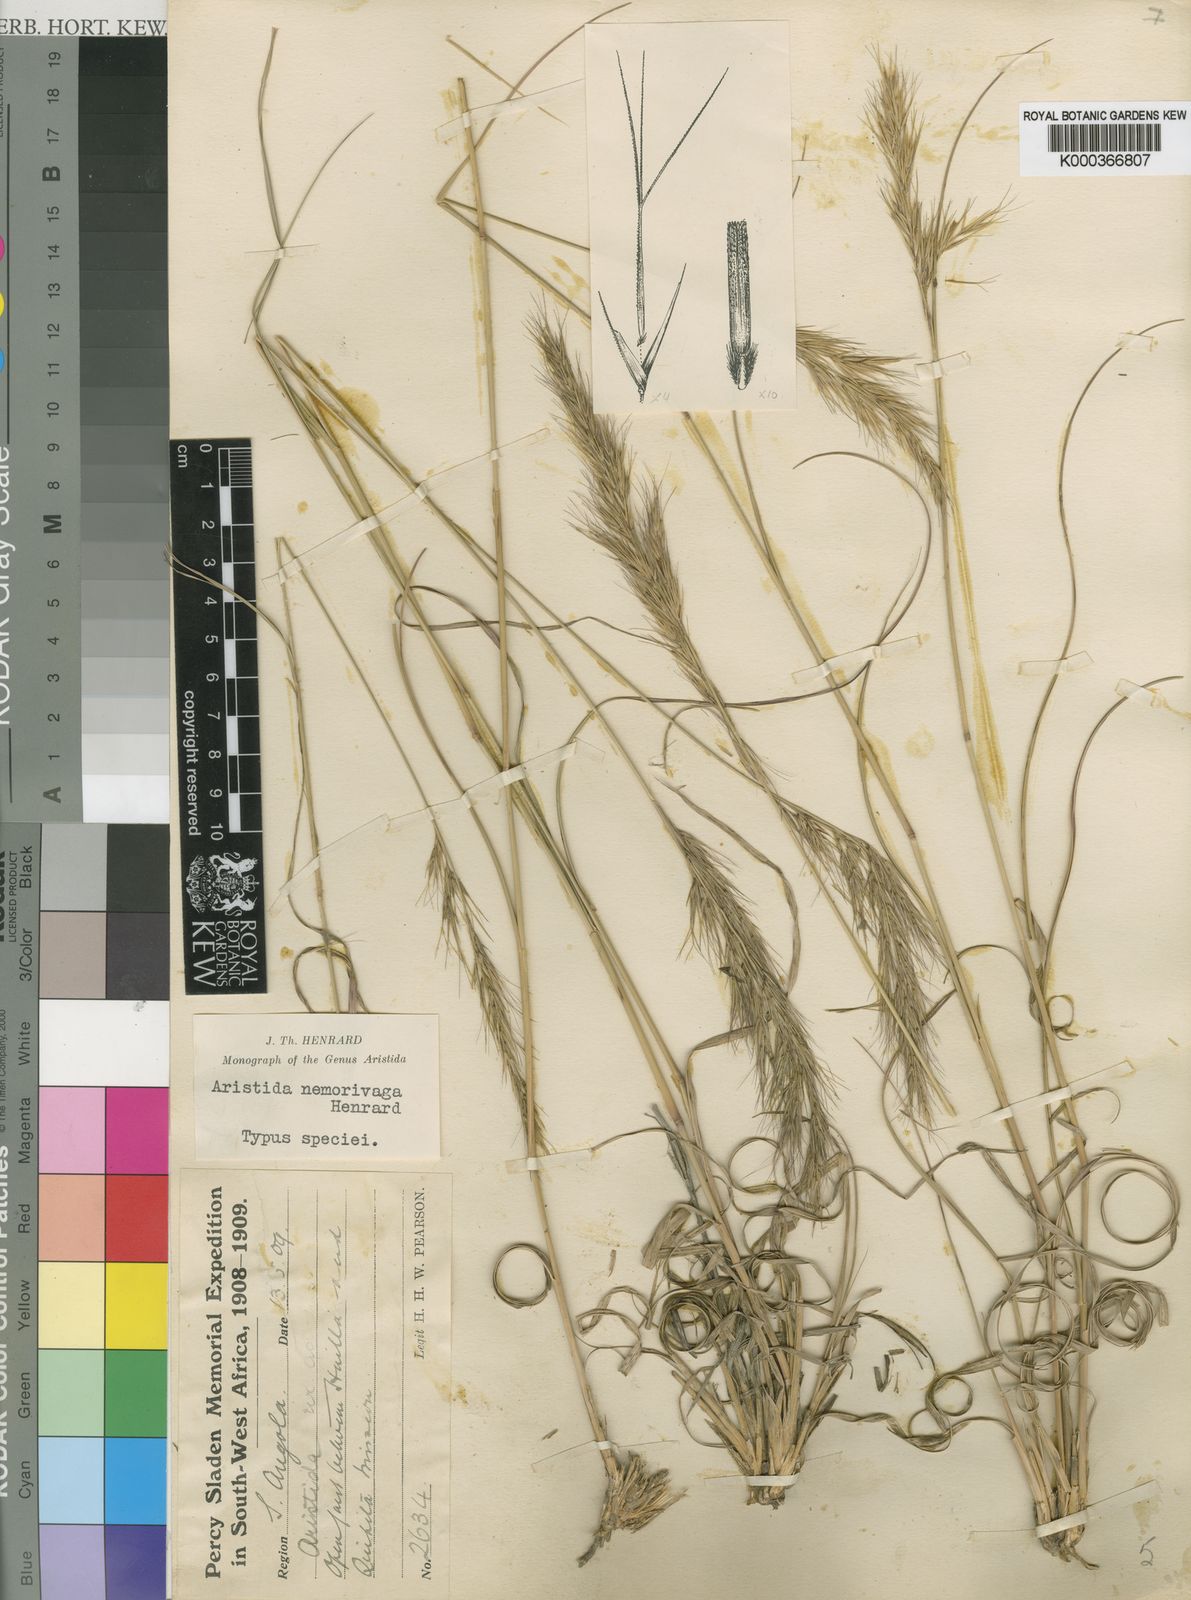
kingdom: Plantae
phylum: Tracheophyta
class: Liliopsida
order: Poales
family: Poaceae
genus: Aristida
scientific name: Aristida nemorivaga
